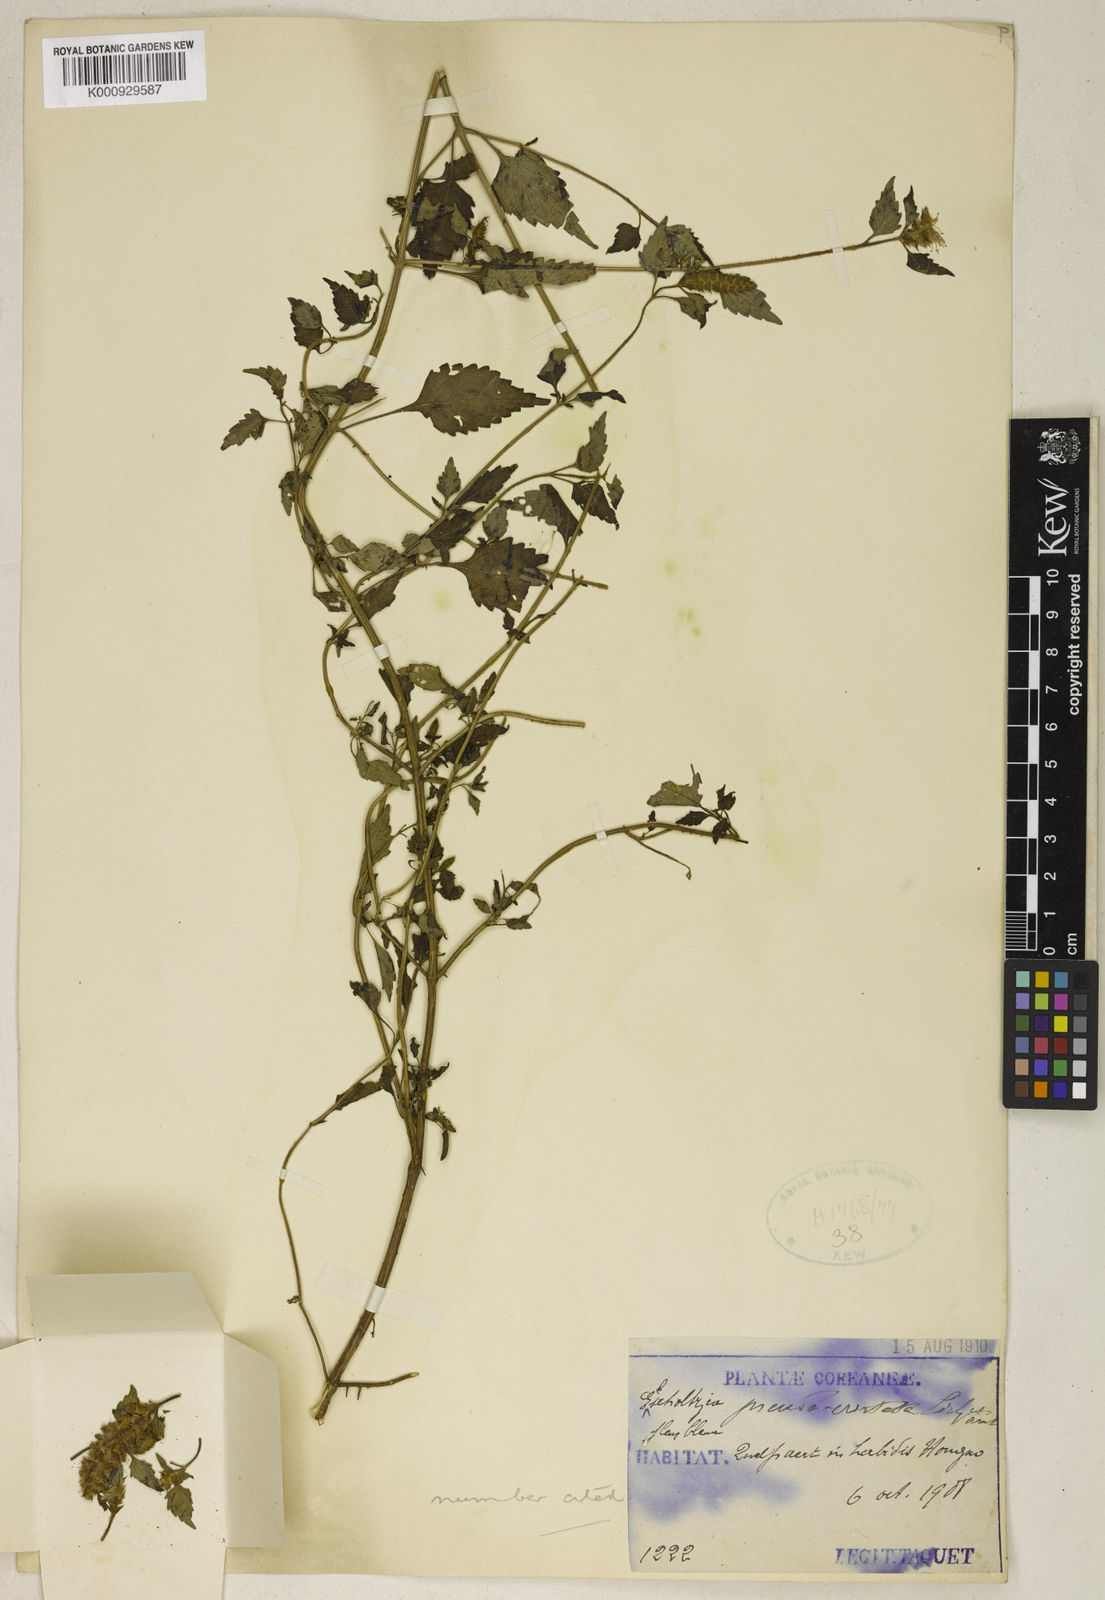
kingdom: Plantae
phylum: Tracheophyta
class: Magnoliopsida
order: Lamiales
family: Lamiaceae
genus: Elsholtzia
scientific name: Elsholtzia
